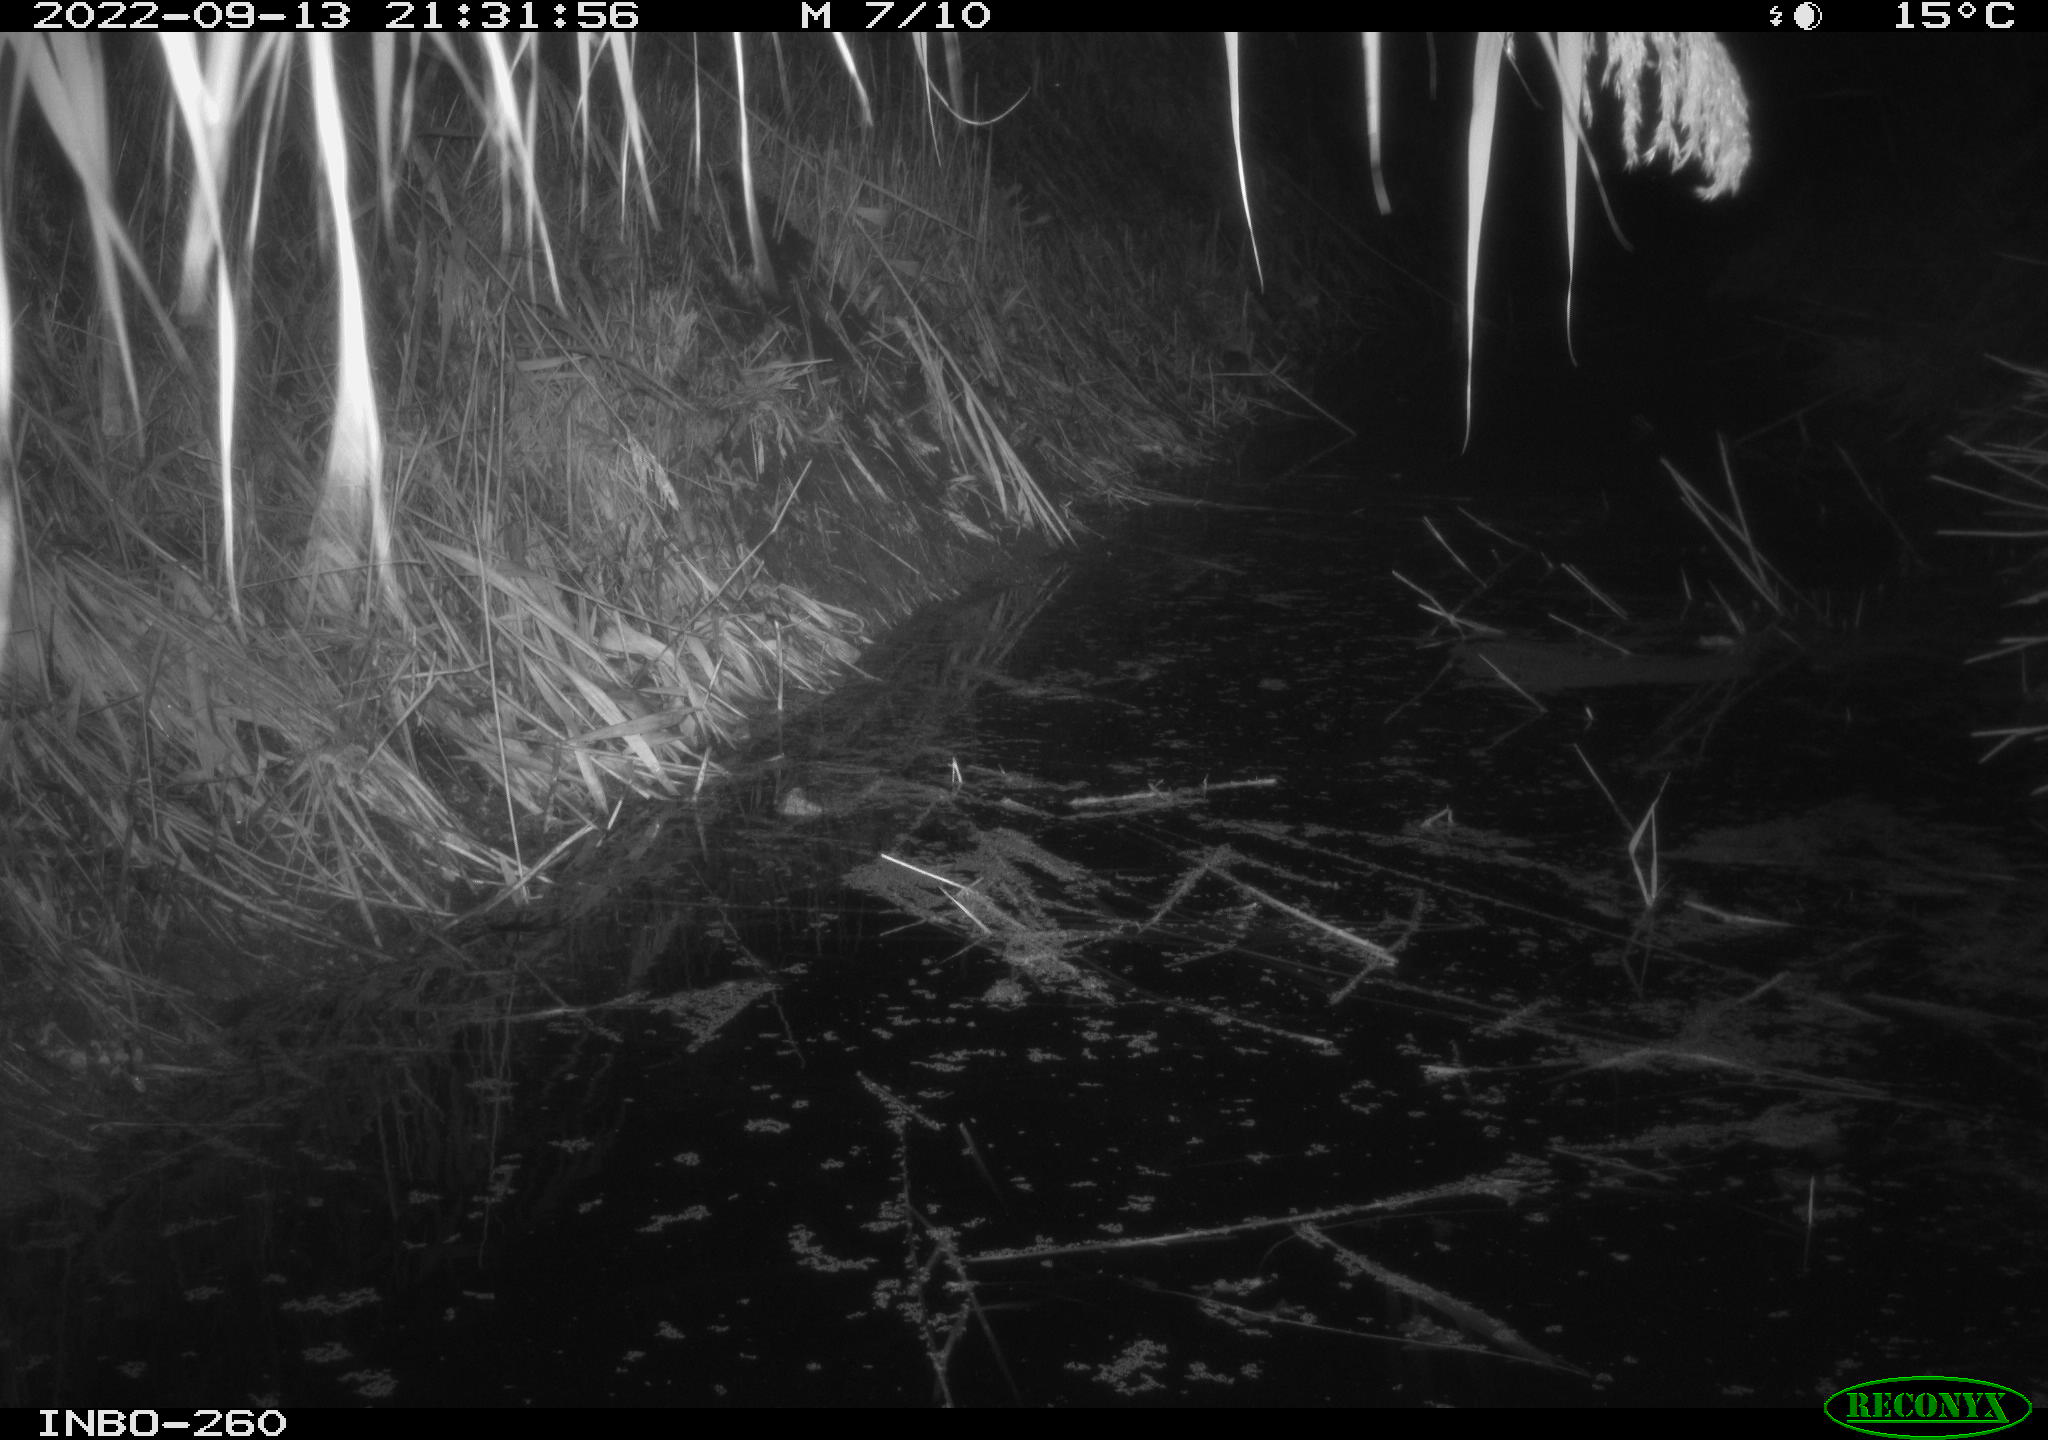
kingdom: Animalia
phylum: Chordata
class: Mammalia
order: Rodentia
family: Muridae
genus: Rattus
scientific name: Rattus norvegicus
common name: Brown rat
